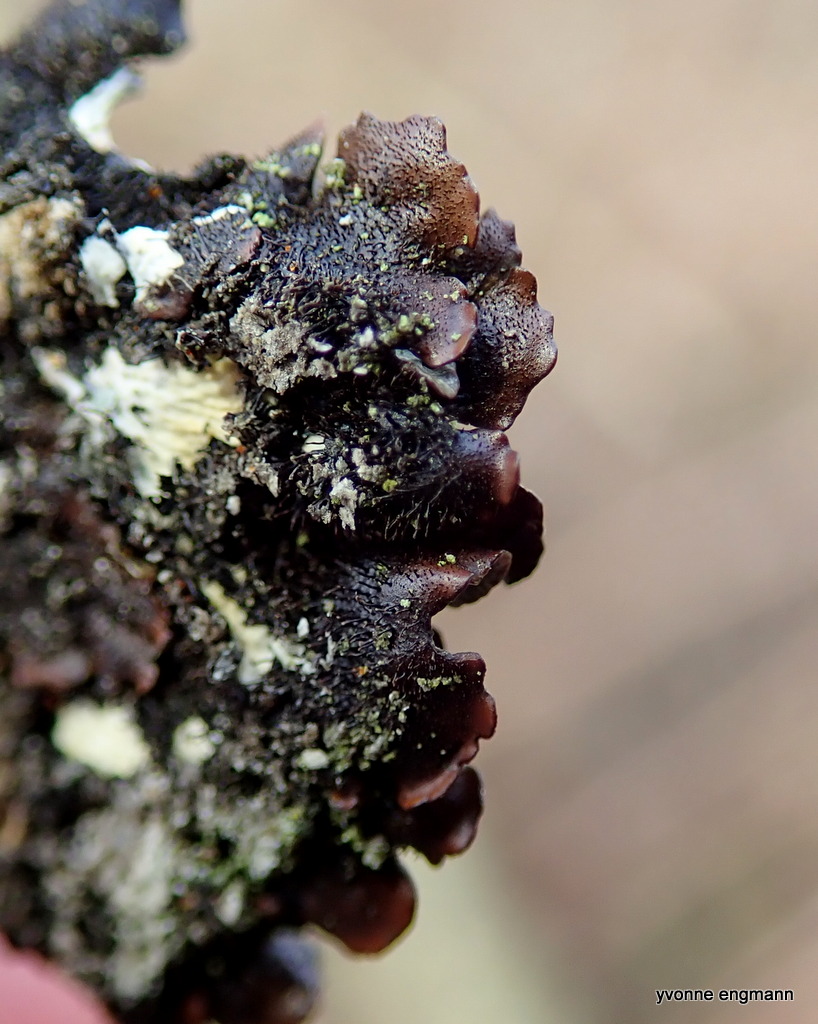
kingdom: Fungi
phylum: Ascomycota
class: Lecanoromycetes
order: Lecanorales
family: Parmeliaceae
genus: Parmelia
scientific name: Parmelia sulcata
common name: rynket skållav
